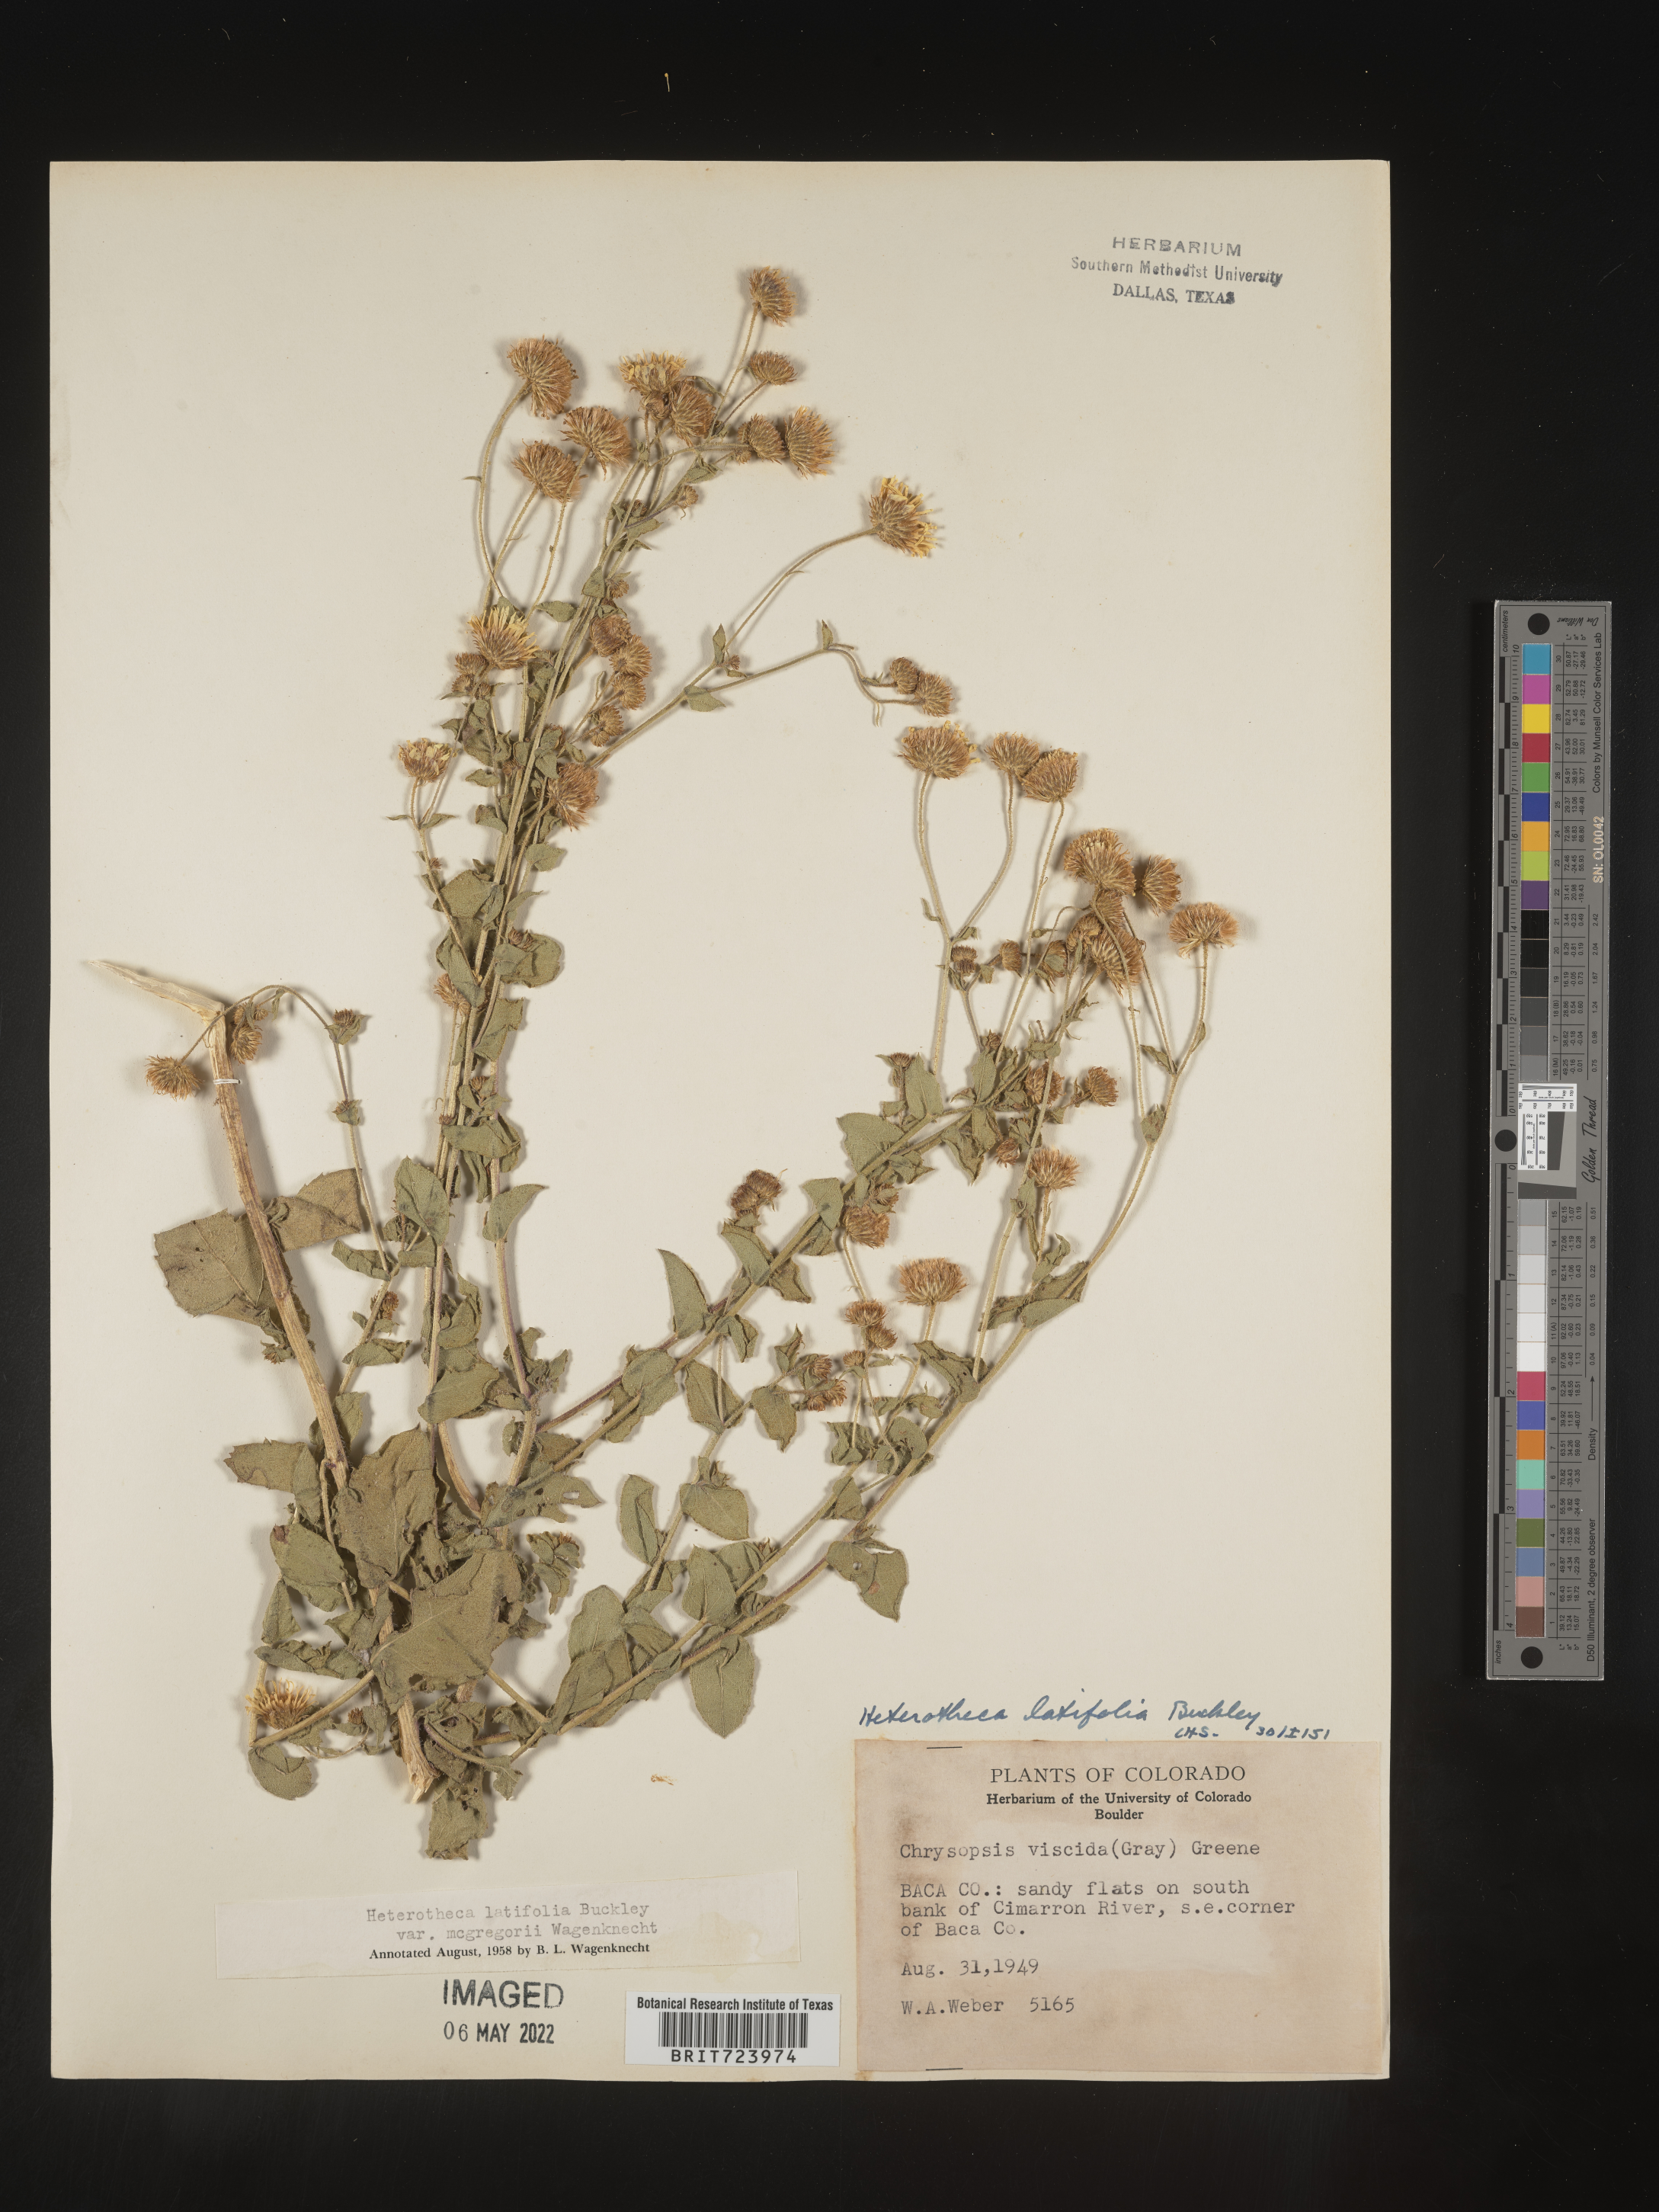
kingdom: Plantae
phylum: Tracheophyta
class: Magnoliopsida
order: Asterales
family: Asteraceae
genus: Heterotheca
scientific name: Heterotheca subaxillaris
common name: Camphorweed
